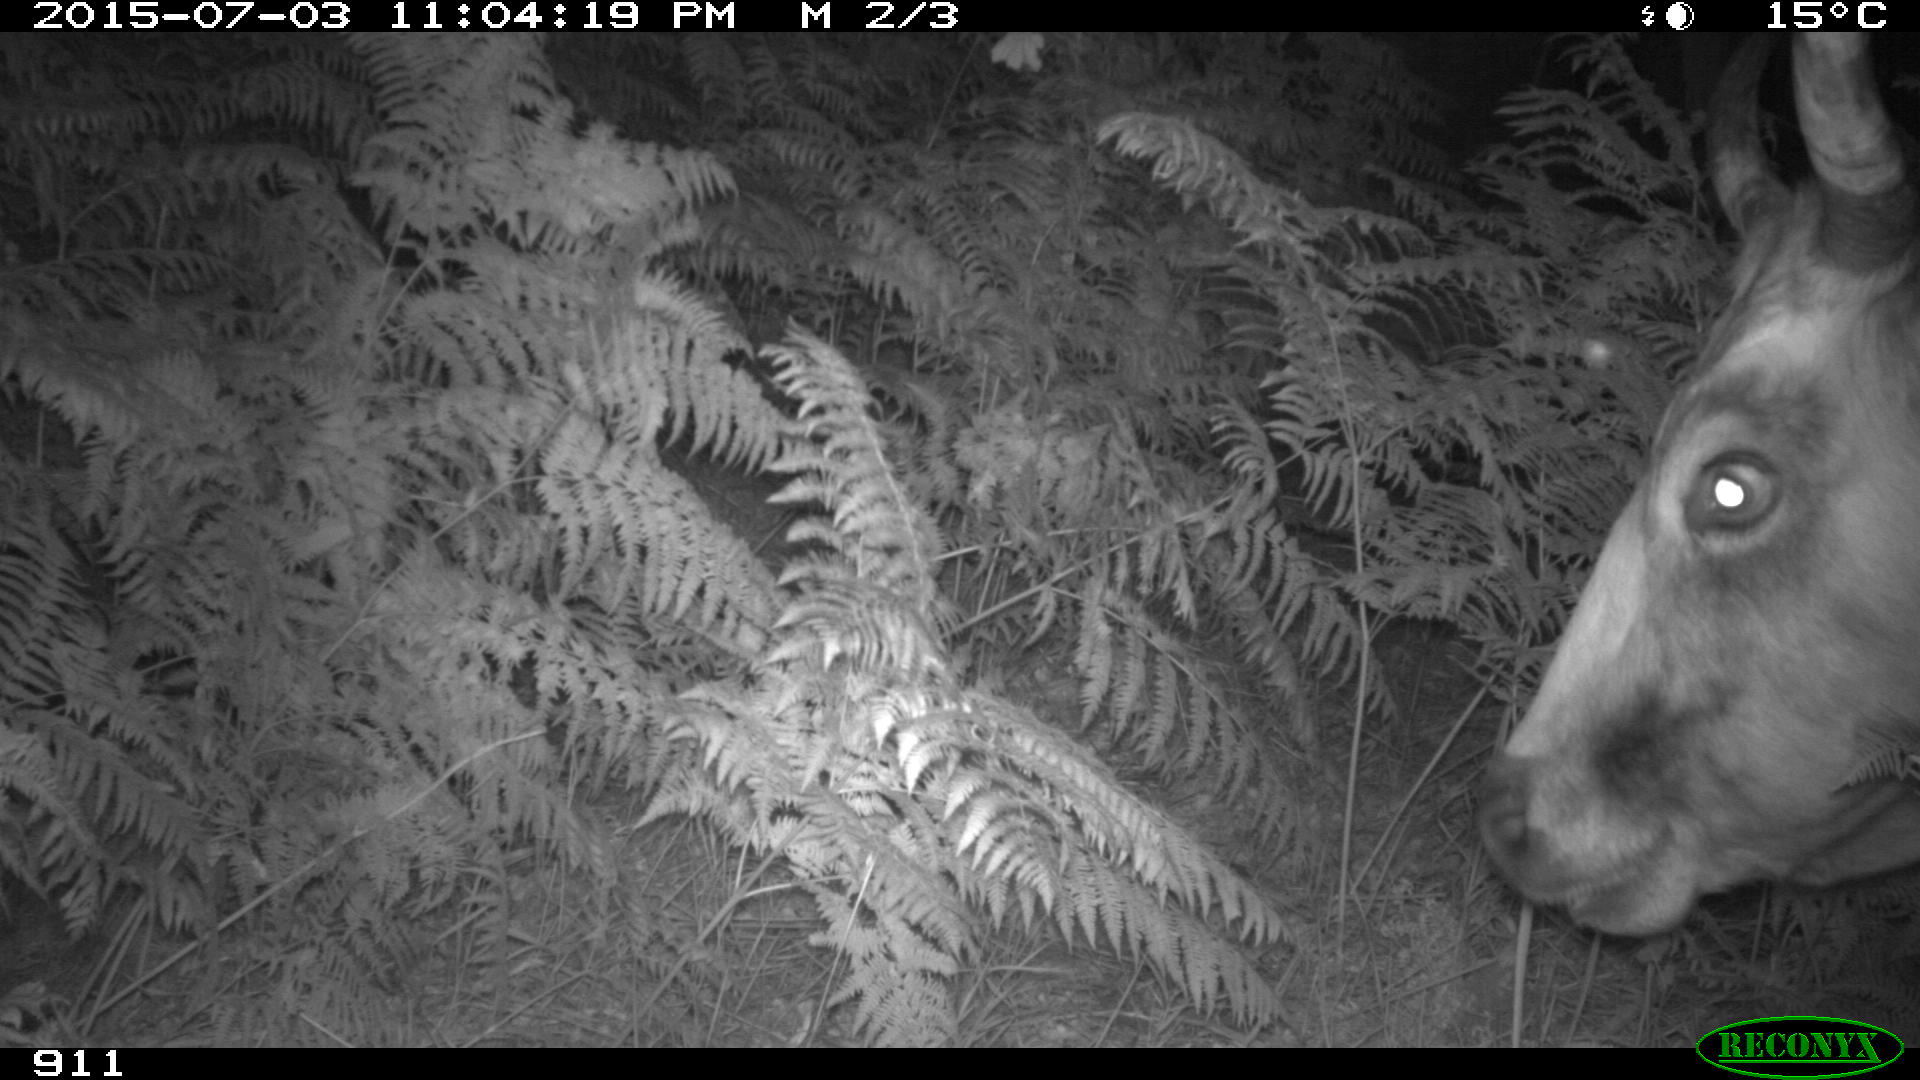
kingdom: Animalia
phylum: Chordata
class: Mammalia
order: Artiodactyla
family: Bovidae
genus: Bos
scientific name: Bos taurus
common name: Domesticated cattle
